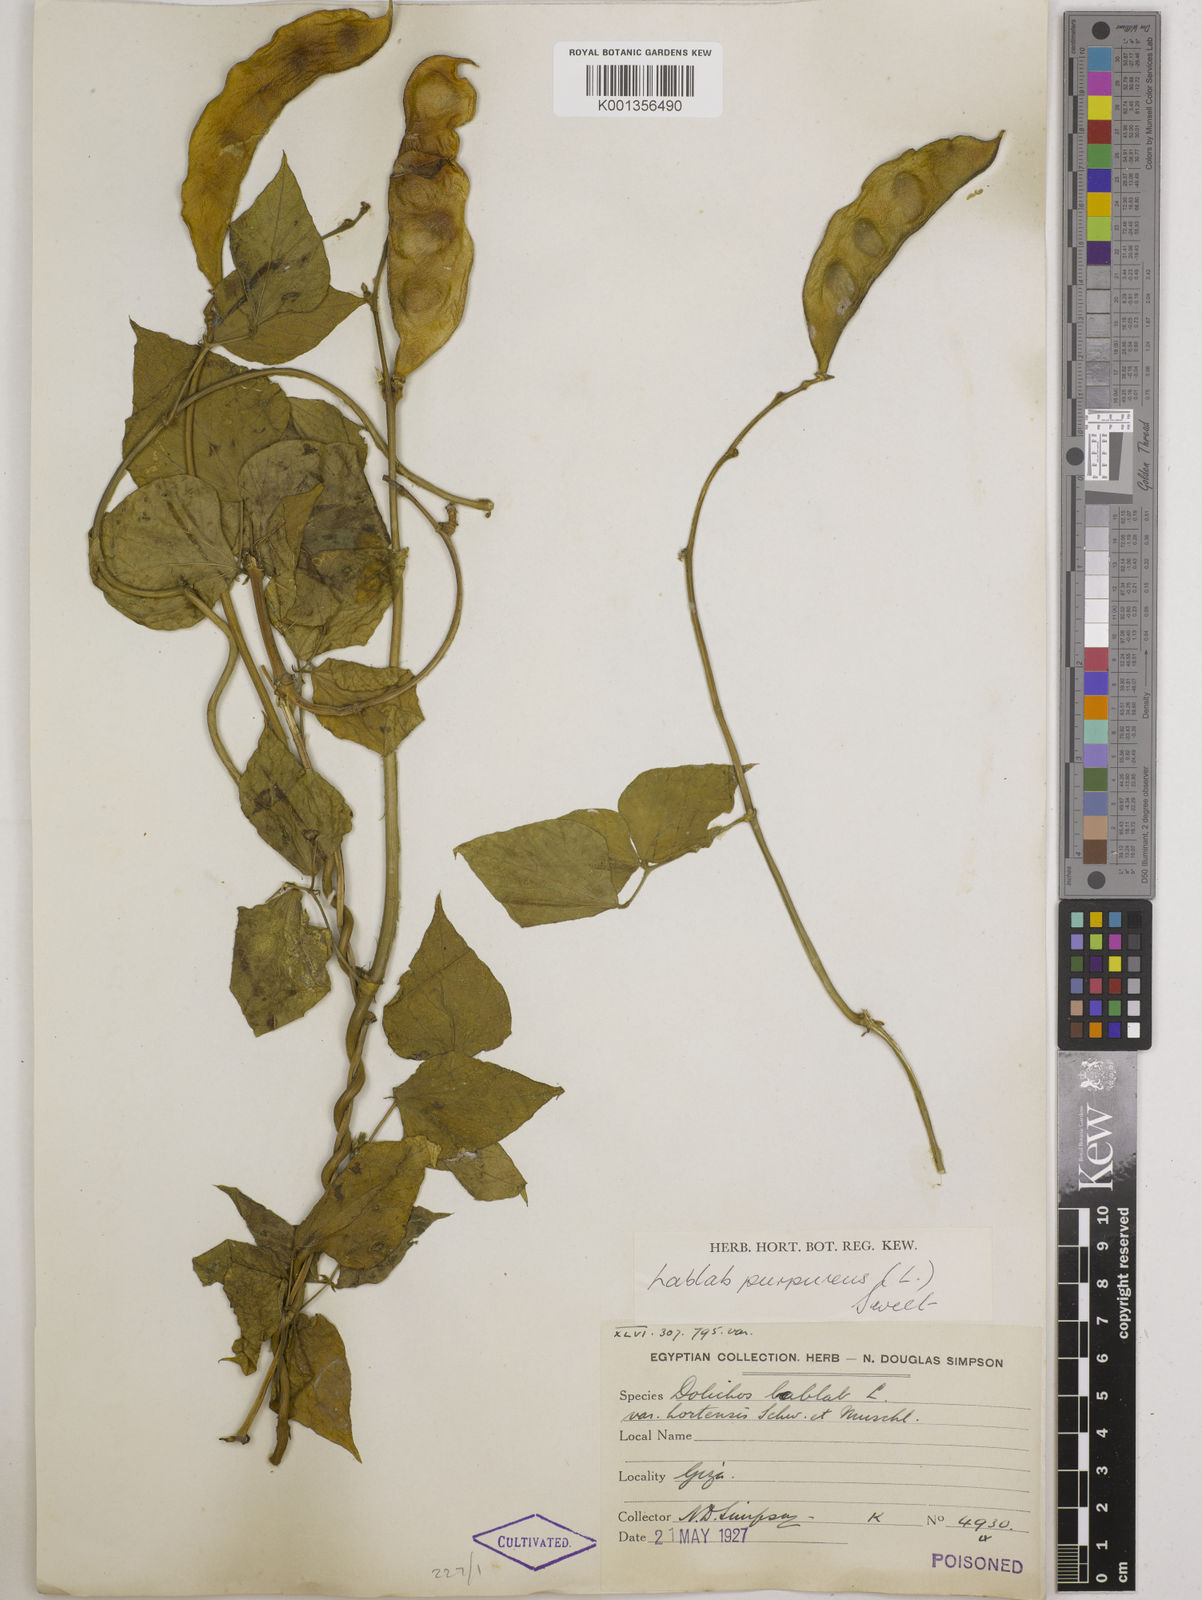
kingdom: Plantae
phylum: Tracheophyta
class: Magnoliopsida
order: Fabales
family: Fabaceae
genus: Lablab
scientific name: Lablab purpureus
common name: Lablab-bean
